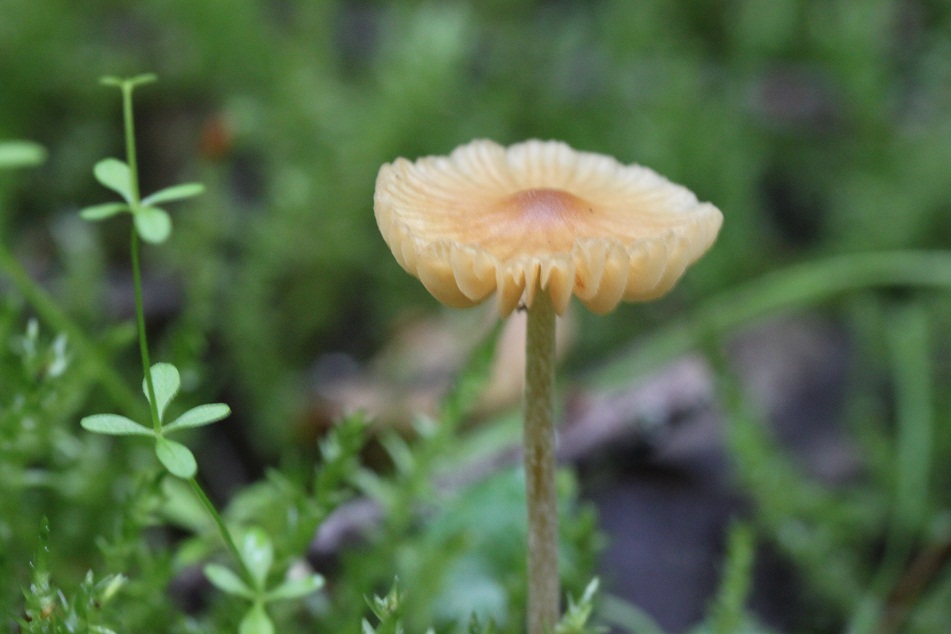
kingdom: Fungi
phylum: Basidiomycota
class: Agaricomycetes
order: Agaricales
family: Hymenogastraceae
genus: Galerina
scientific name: Galerina clavata
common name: kær-hjelmhat
